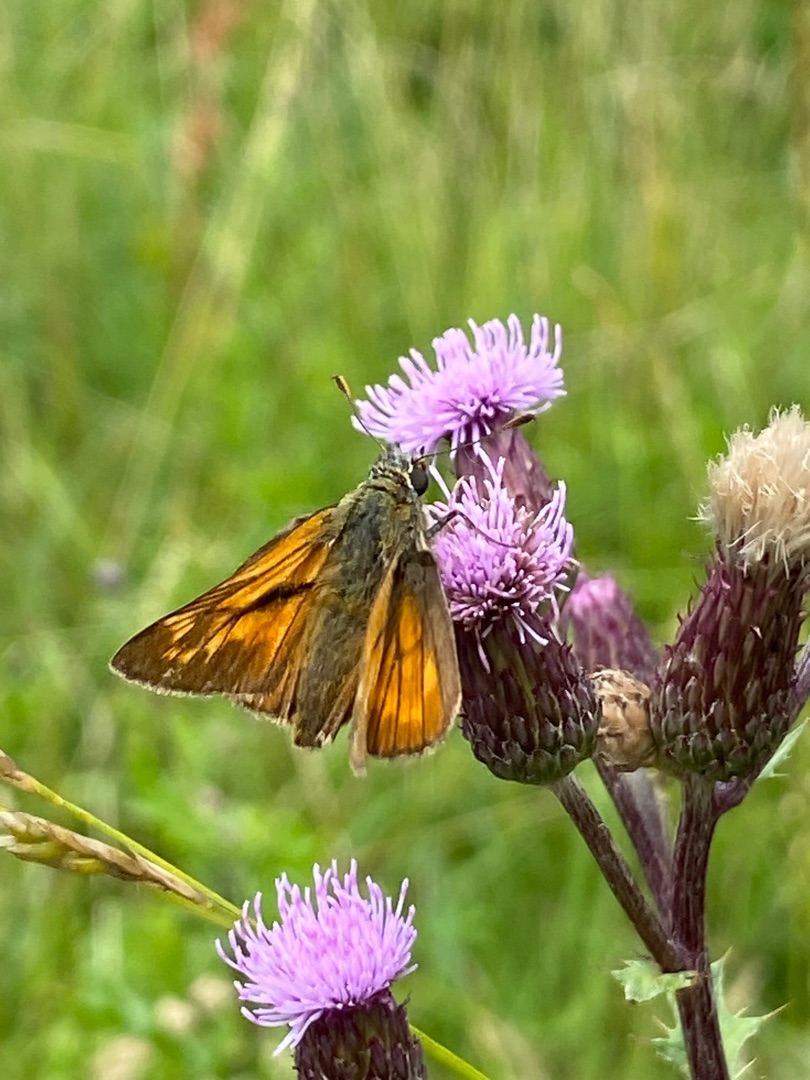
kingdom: Animalia
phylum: Arthropoda
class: Insecta
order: Lepidoptera
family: Hesperiidae
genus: Ochlodes
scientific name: Ochlodes venata
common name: Stor bredpande
